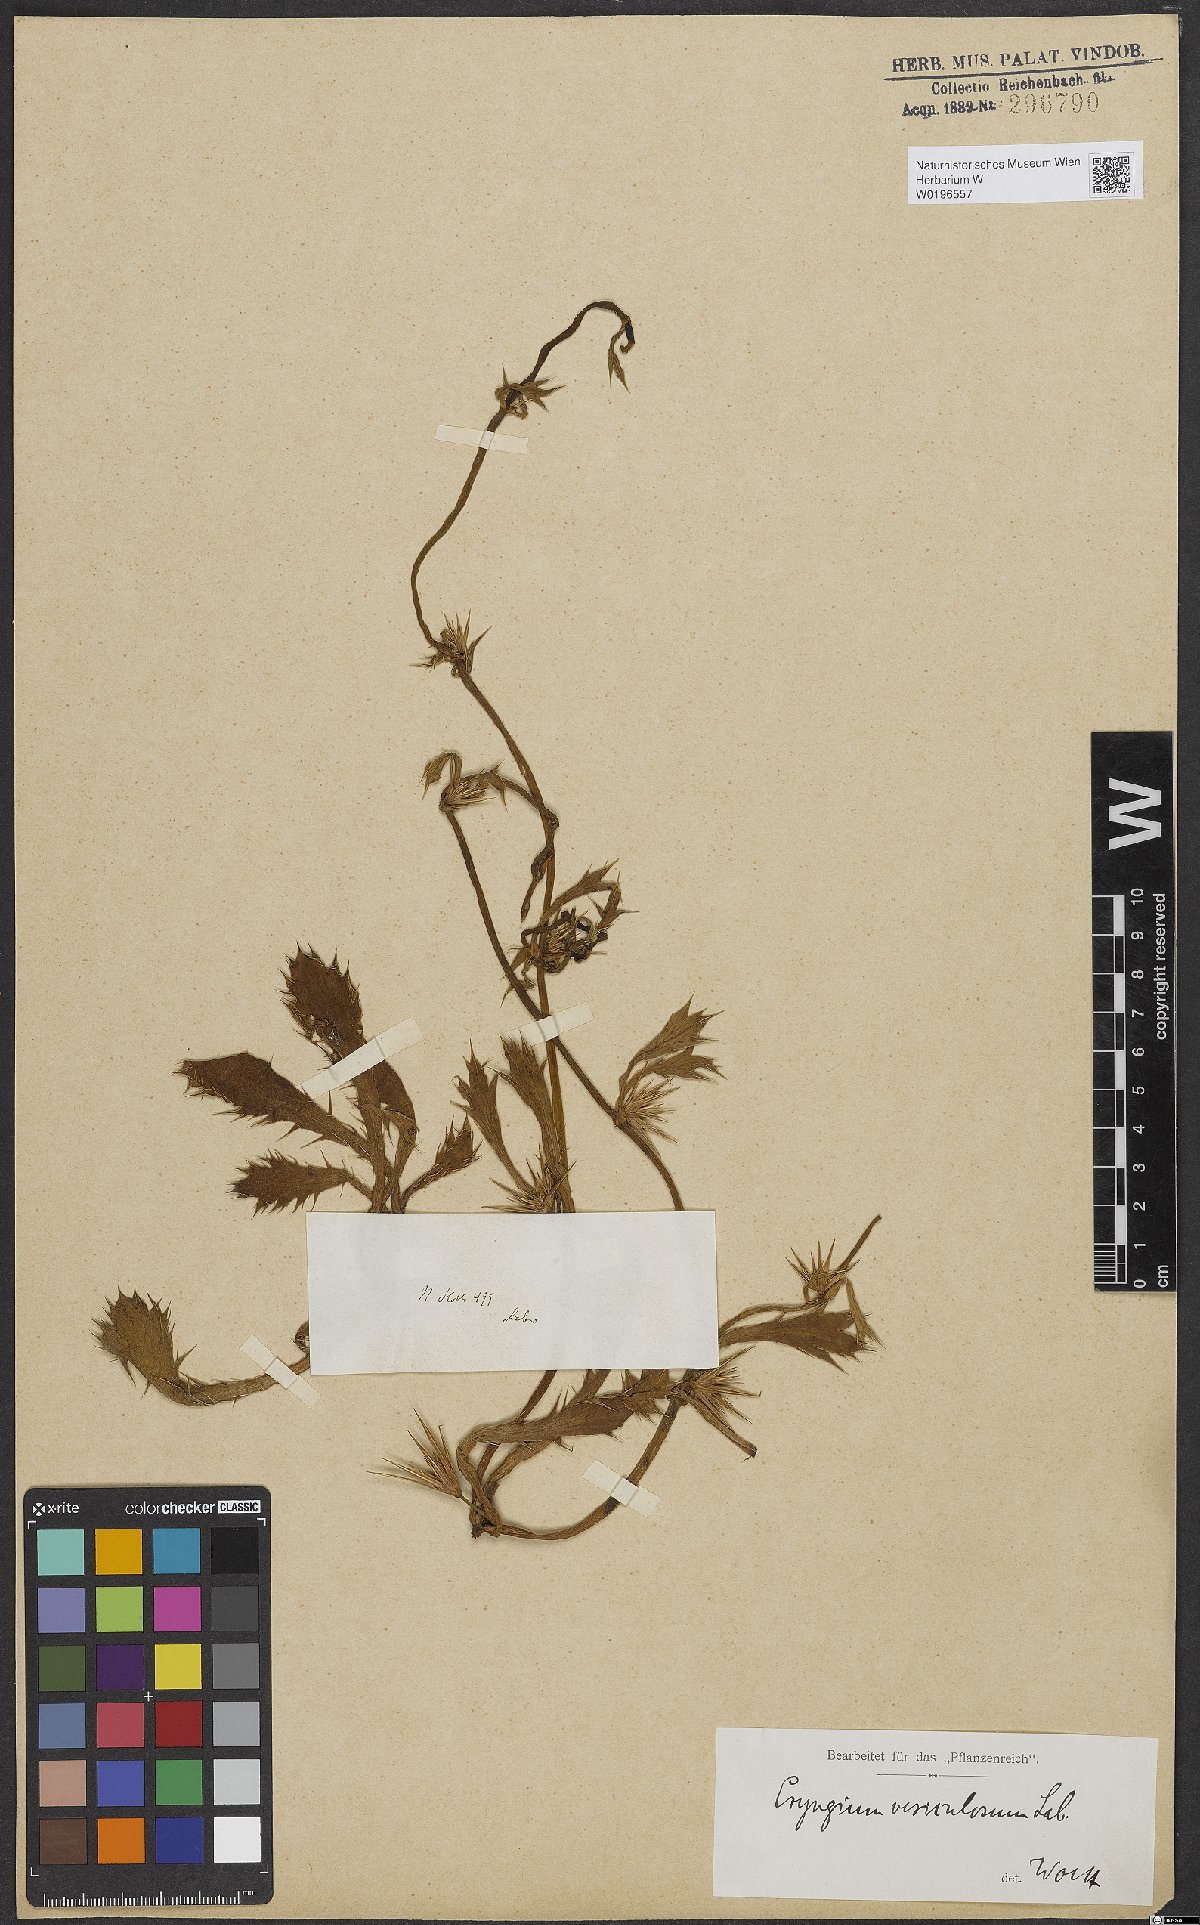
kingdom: Plantae
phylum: Tracheophyta
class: Magnoliopsida
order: Apiales
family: Apiaceae
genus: Eryngium
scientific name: Eryngium vesiculosum
